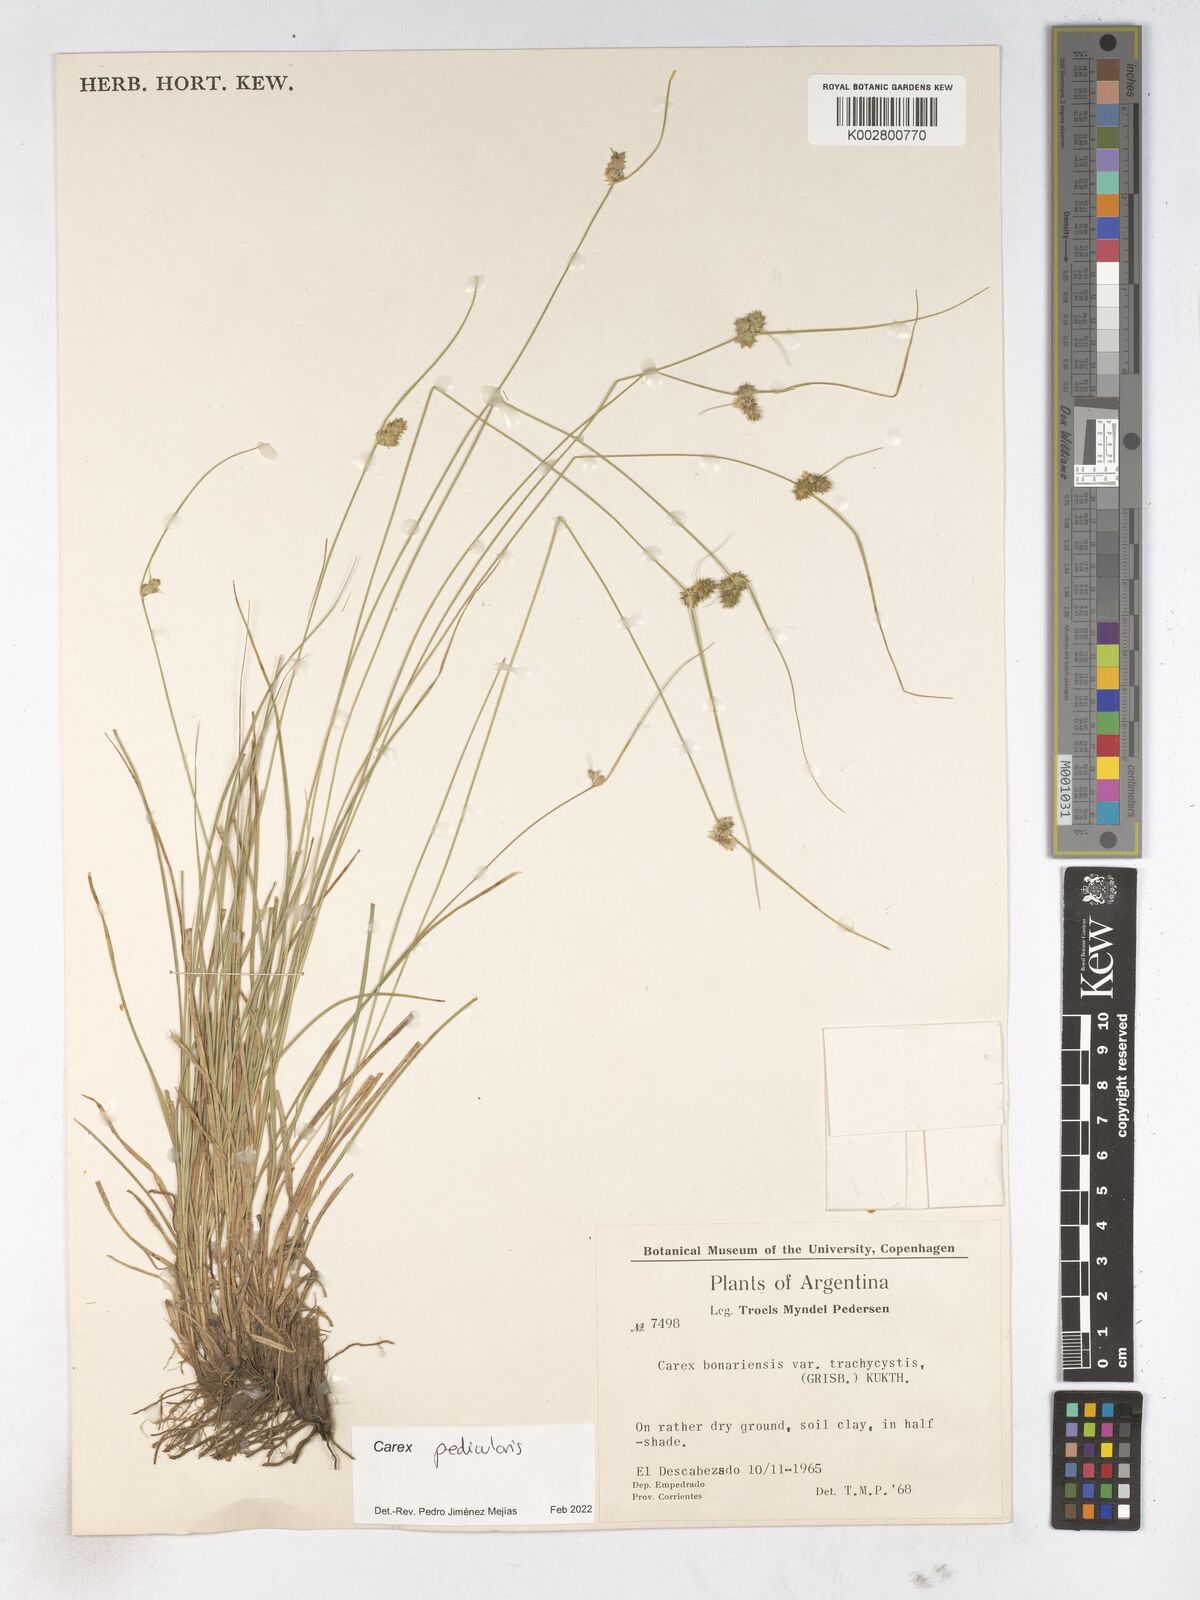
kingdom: Plantae
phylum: Tracheophyta
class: Liliopsida
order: Poales
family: Cyperaceae
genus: Carex
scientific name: Carex bonariensis
